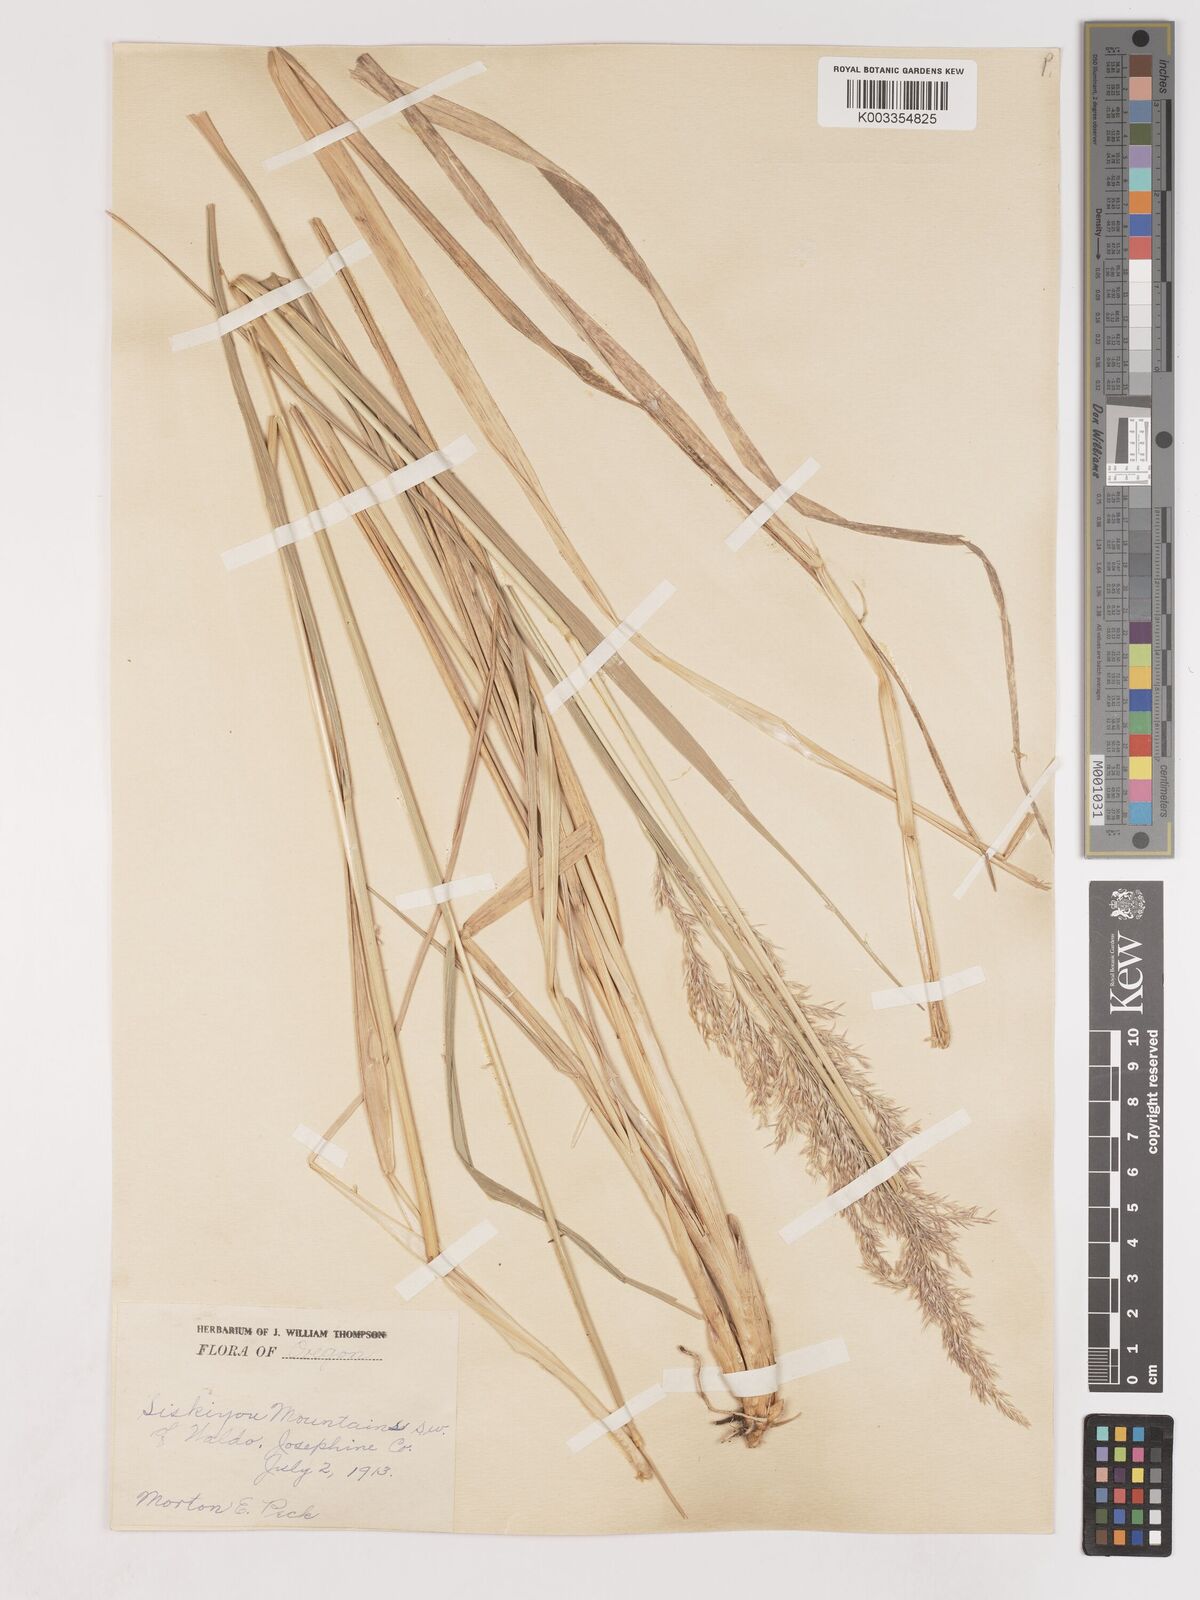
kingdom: Plantae
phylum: Tracheophyta
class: Liliopsida
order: Poales
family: Poaceae
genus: Calamagrostis
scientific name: Calamagrostis
